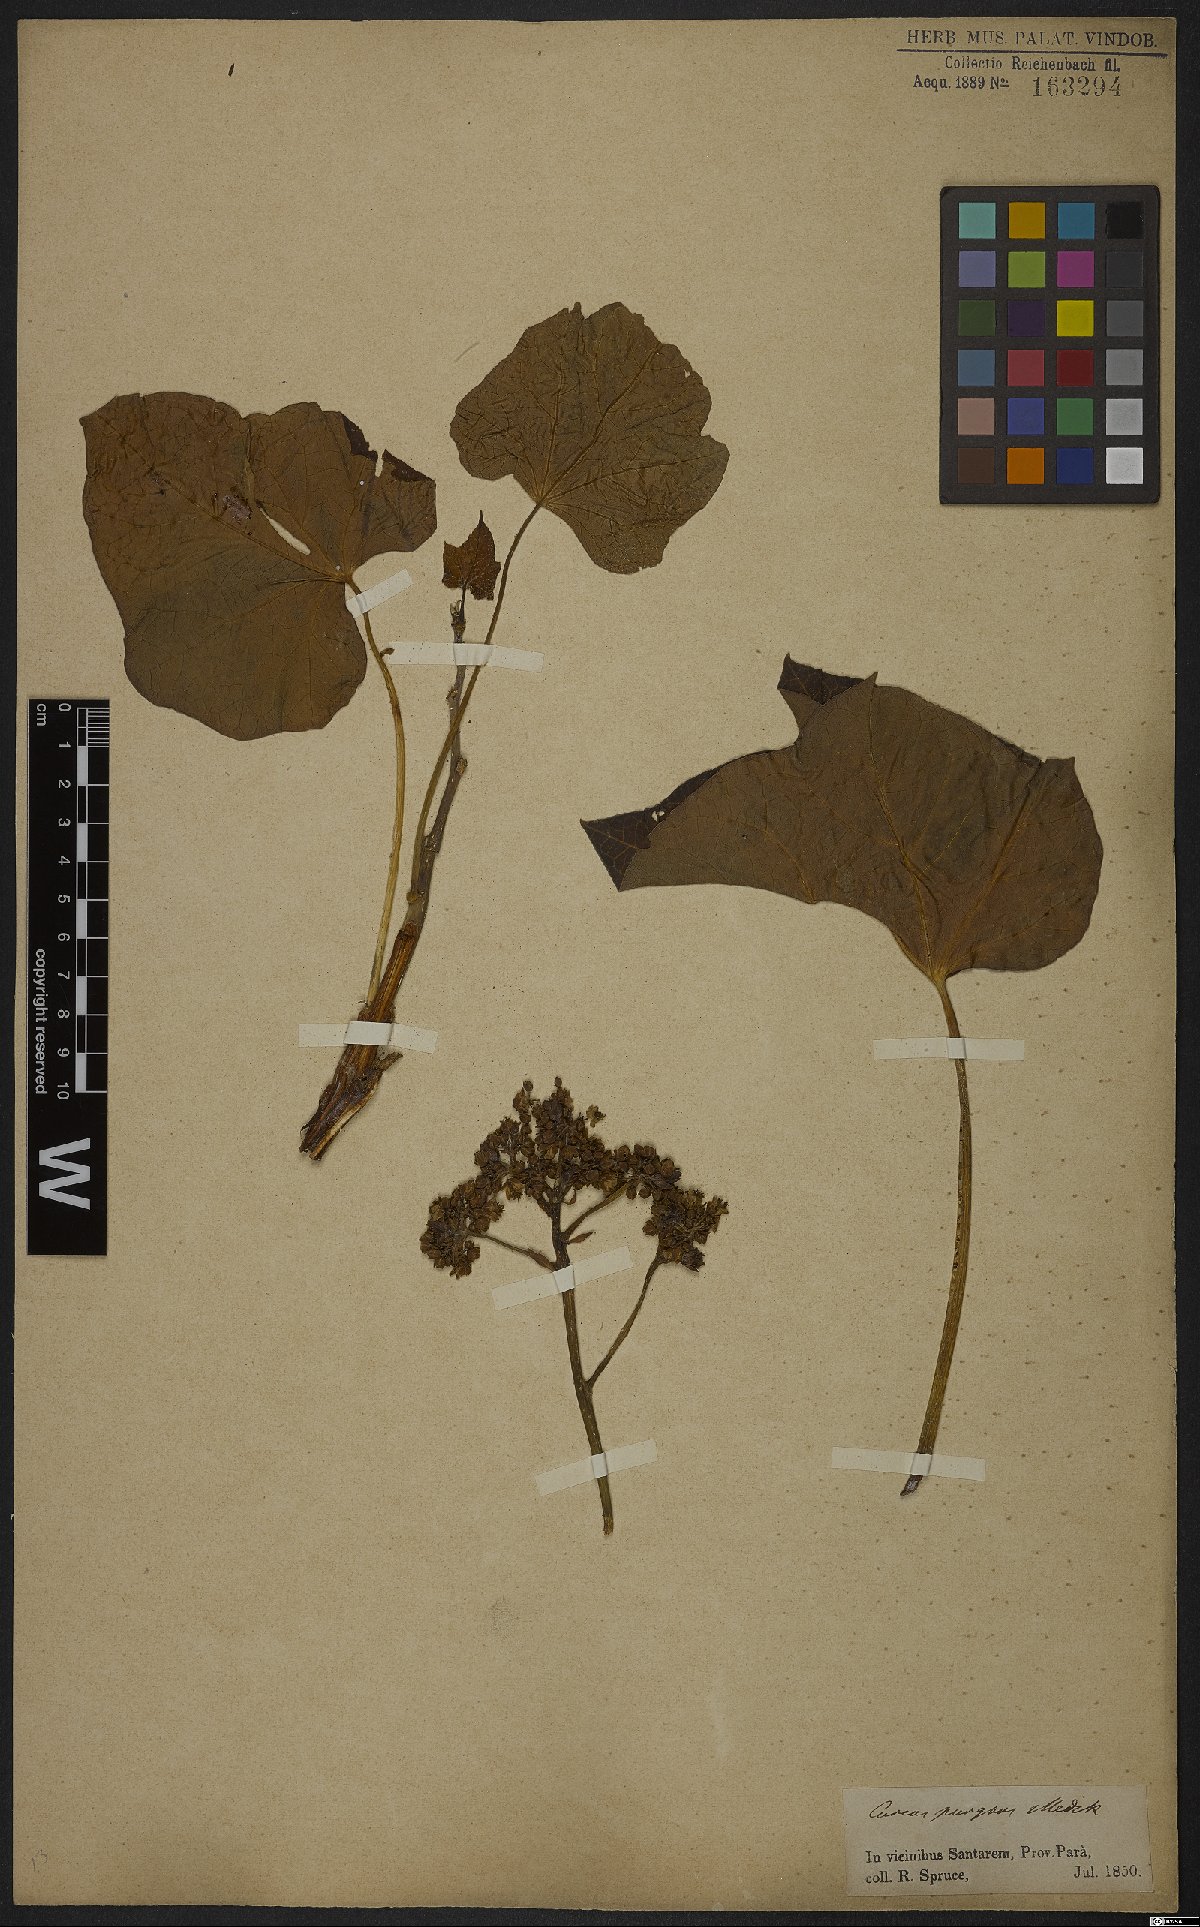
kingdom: Plantae
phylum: Tracheophyta
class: Magnoliopsida
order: Malpighiales
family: Euphorbiaceae
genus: Jatropha
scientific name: Jatropha curcas
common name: Barbados nut
